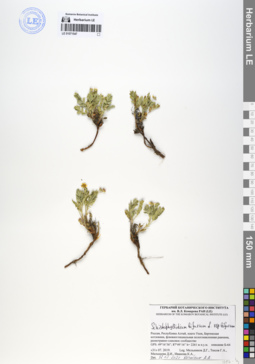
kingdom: Plantae
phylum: Tracheophyta
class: Magnoliopsida
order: Rosales
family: Rosaceae
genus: Sibbaldianthe
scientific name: Sibbaldianthe bifurca
